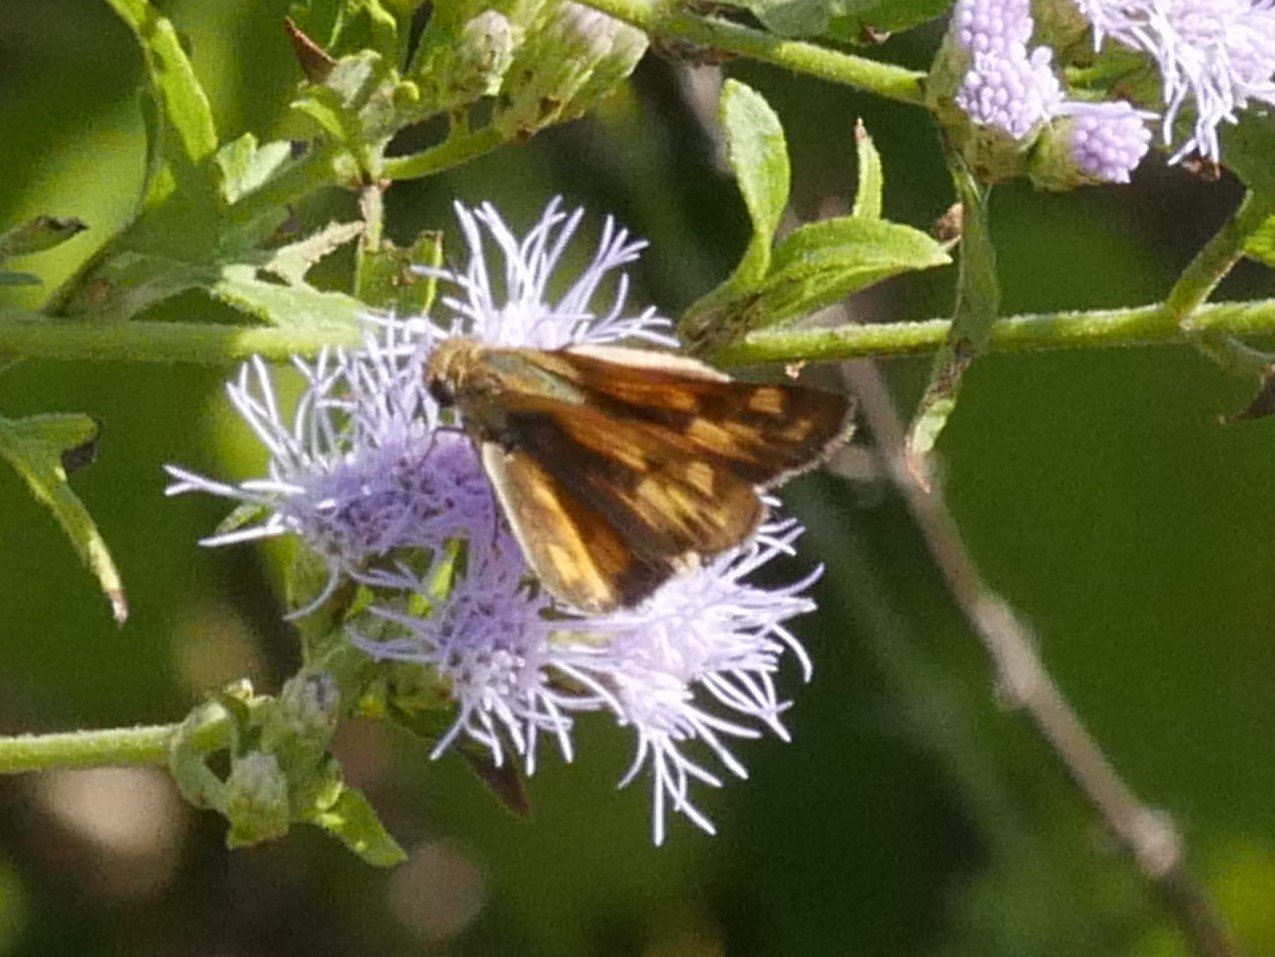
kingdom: Animalia
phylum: Arthropoda
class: Insecta
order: Lepidoptera
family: Hesperiidae
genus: Hylephila
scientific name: Hylephila phyleus
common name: Fiery Skipper
